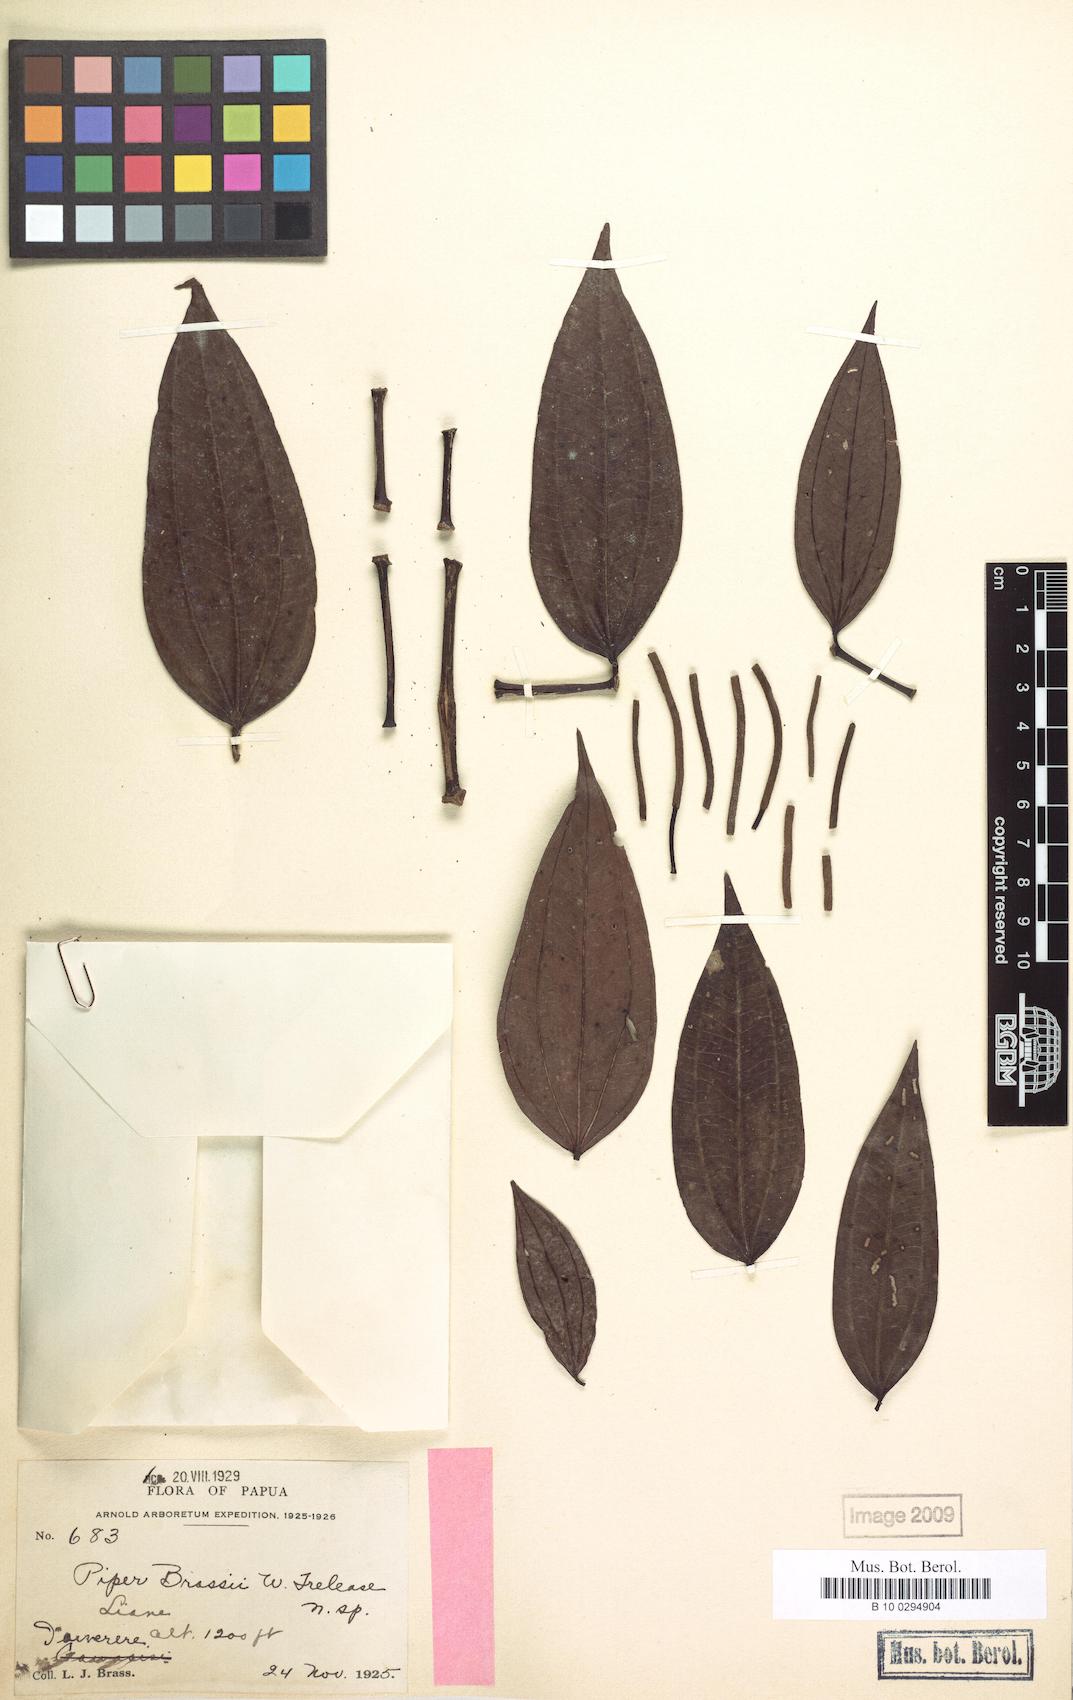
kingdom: Plantae
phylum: Tracheophyta
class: Magnoliopsida
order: Piperales
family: Piperaceae
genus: Piper
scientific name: Piper macropiper
